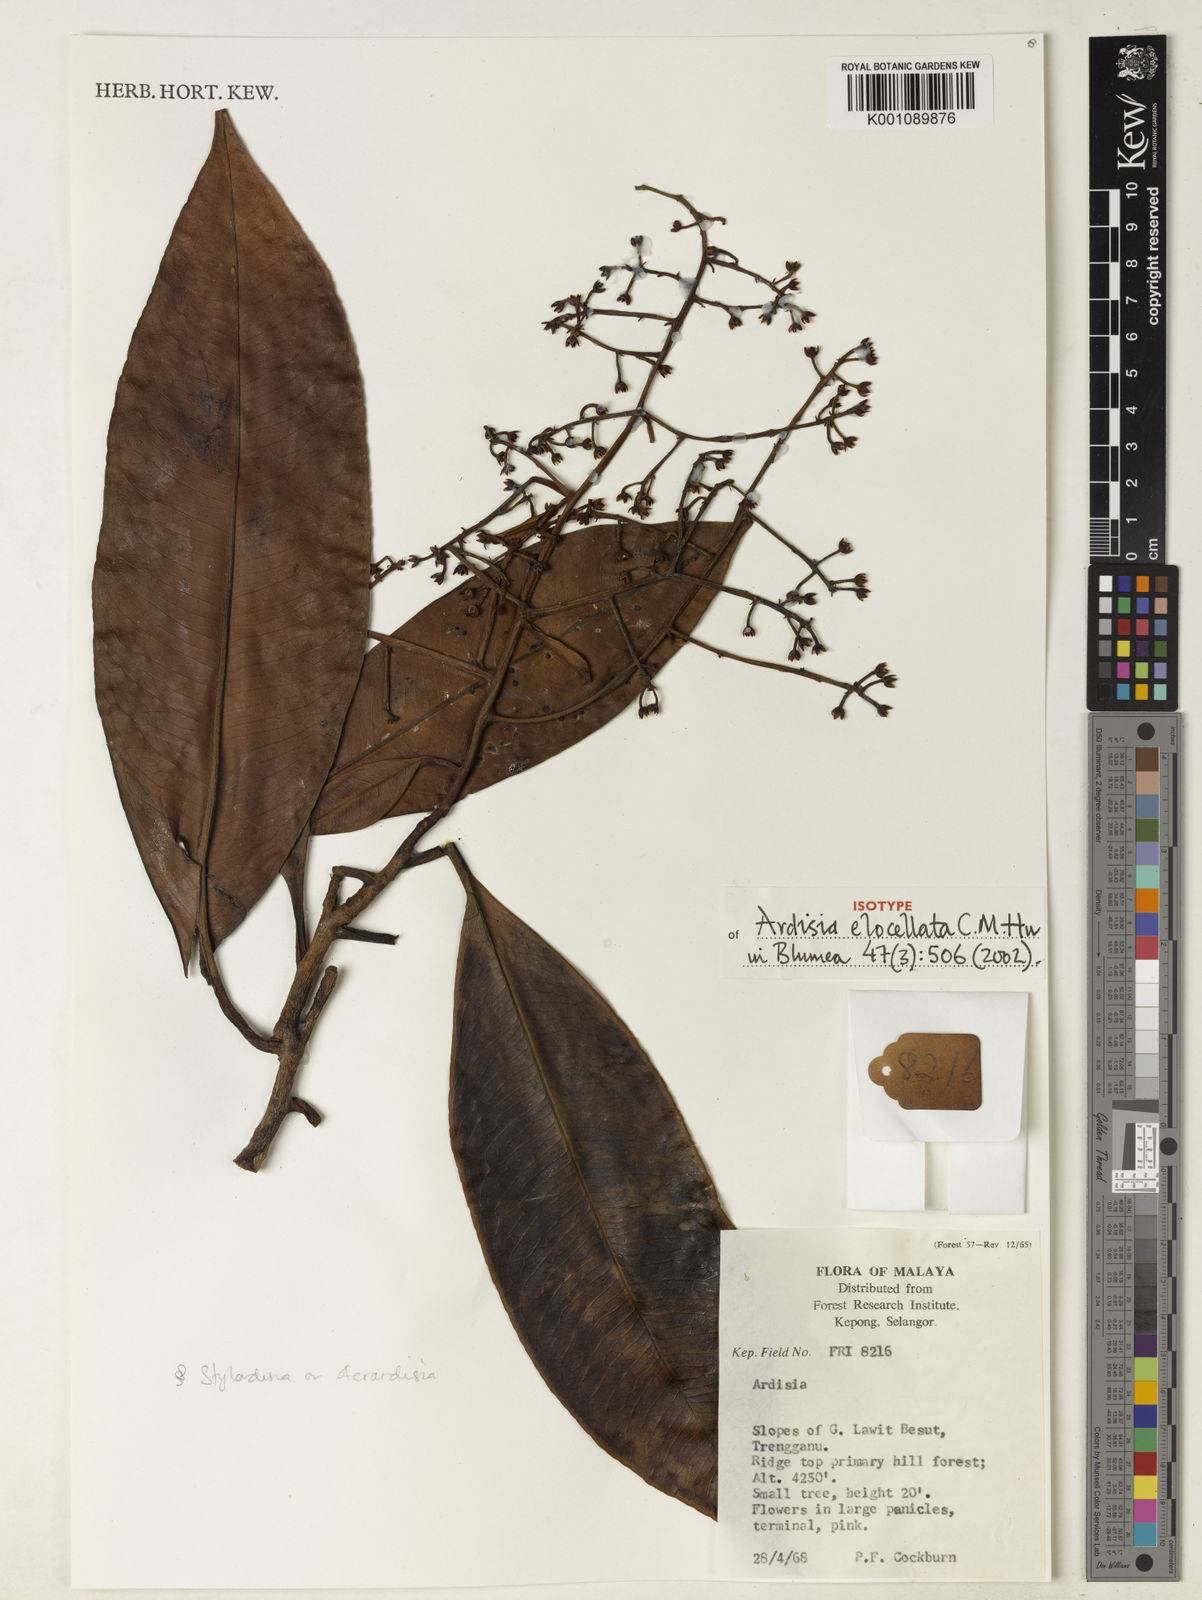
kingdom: Plantae
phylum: Tracheophyta
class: Magnoliopsida
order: Ericales
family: Primulaceae
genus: Ardisia
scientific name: Ardisia elocellata
